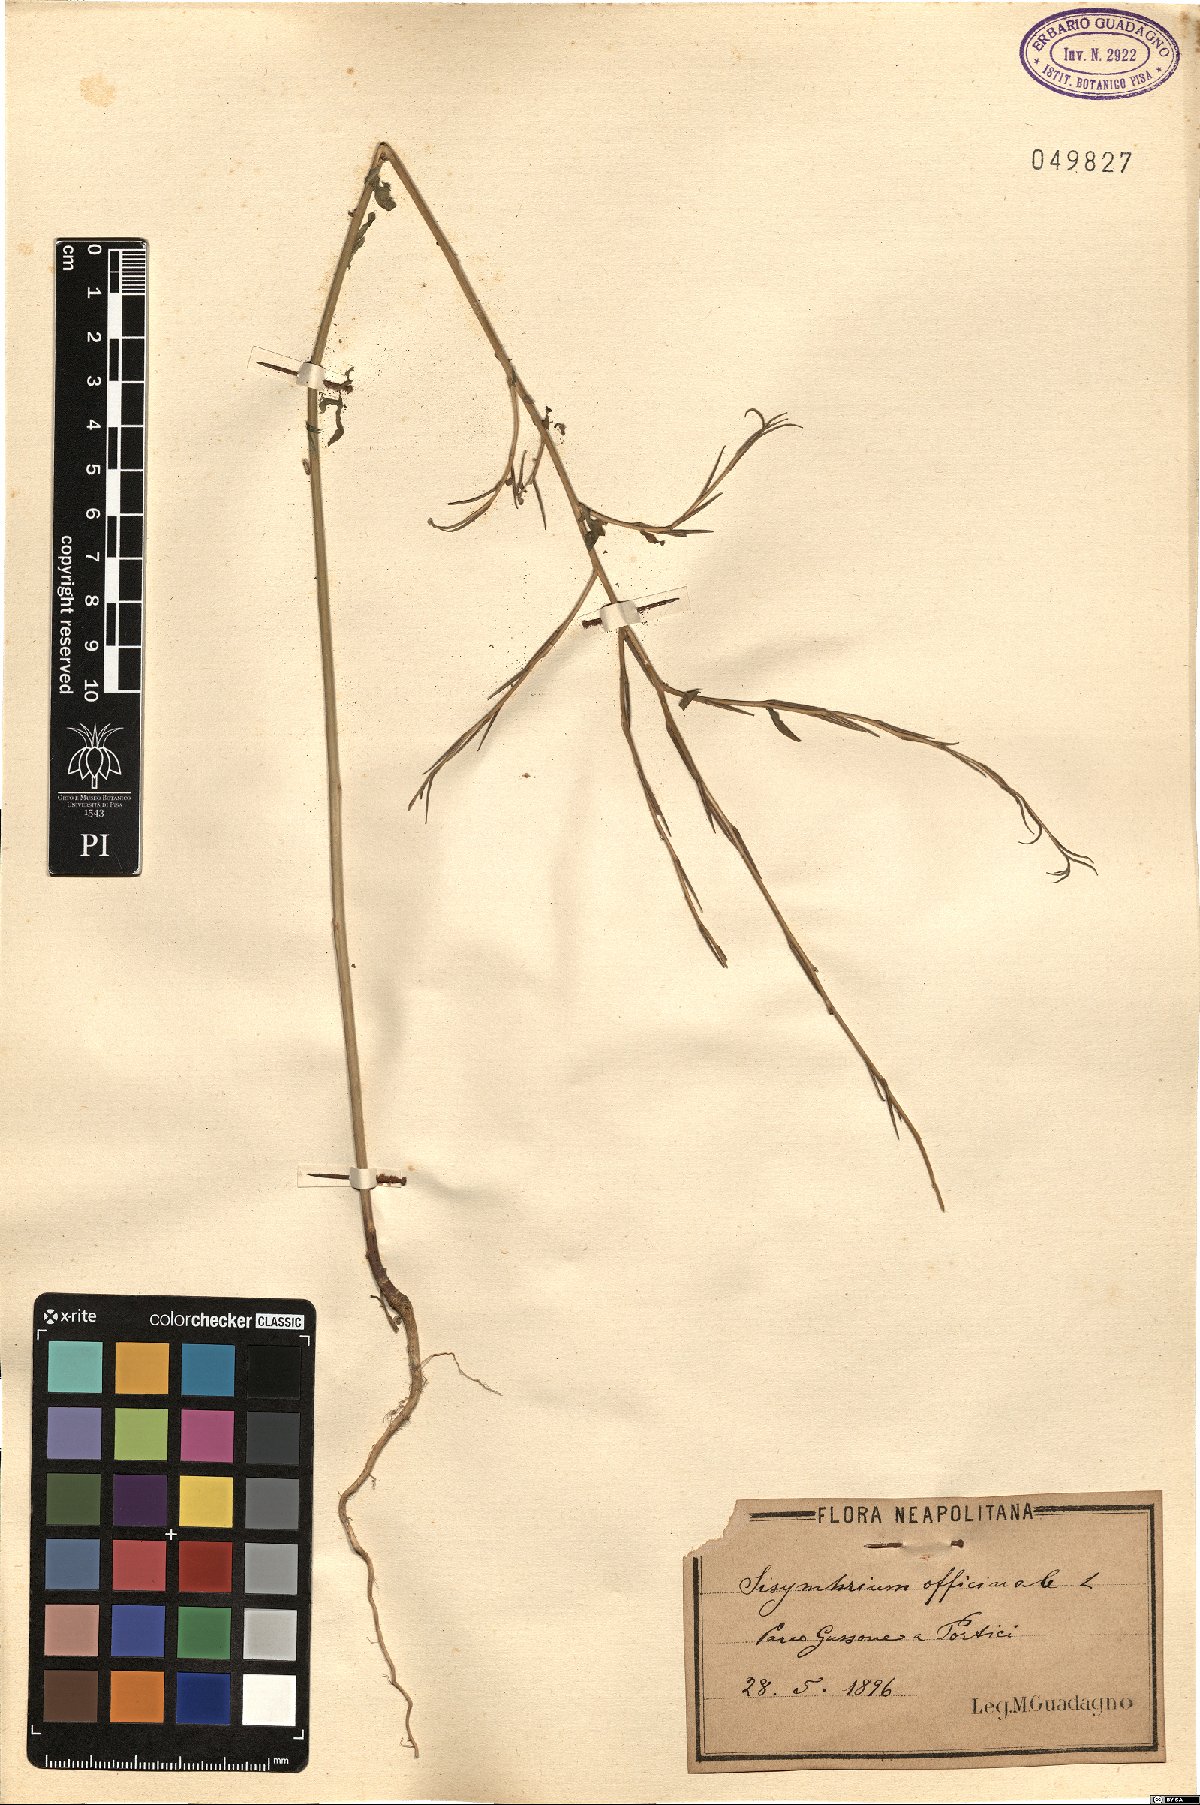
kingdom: Plantae
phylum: Tracheophyta
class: Magnoliopsida
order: Brassicales
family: Brassicaceae
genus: Sisymbrium
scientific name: Sisymbrium officinale
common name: Hedge mustard
